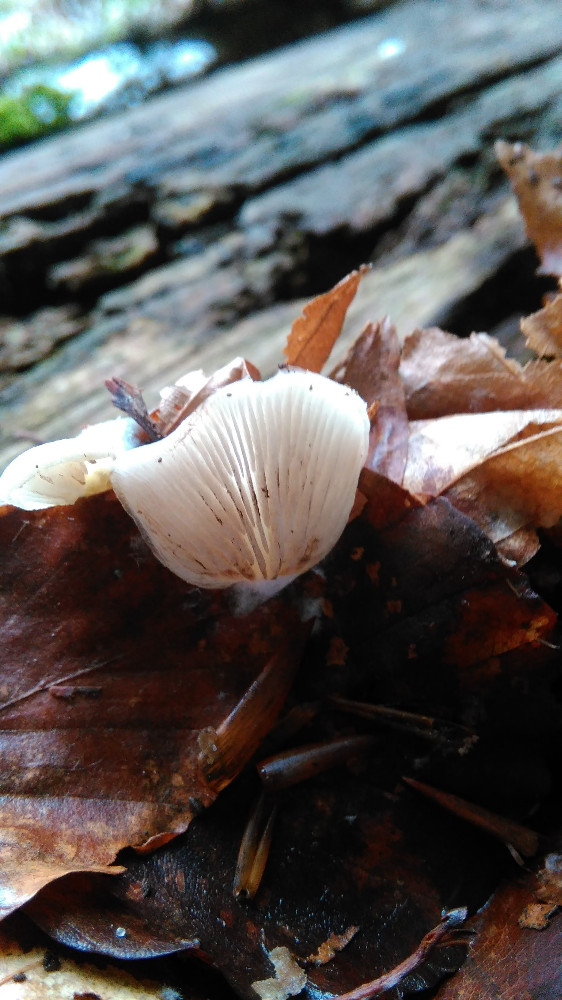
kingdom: Fungi
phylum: Basidiomycota
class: Agaricomycetes
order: Agaricales
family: Crepidotaceae
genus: Crepidotus
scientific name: Crepidotus
